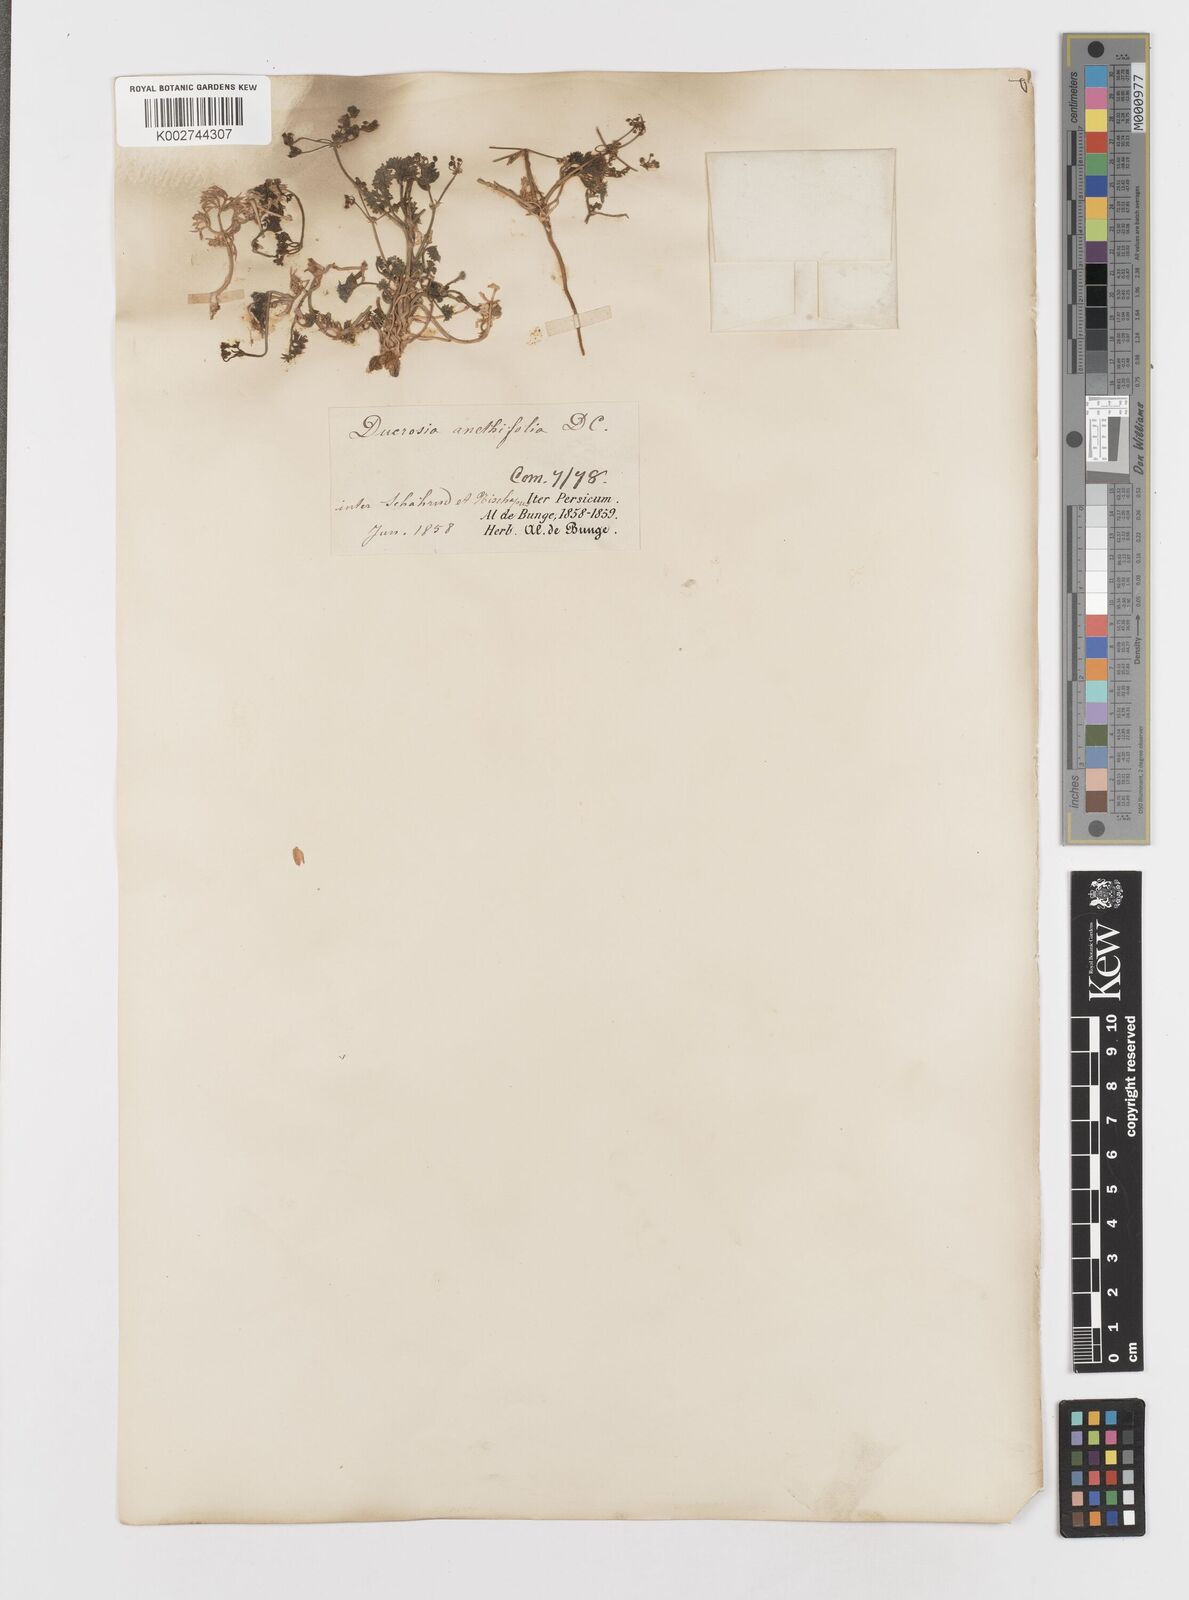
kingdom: Plantae
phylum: Tracheophyta
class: Magnoliopsida
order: Apiales
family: Apiaceae
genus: Ducrosia
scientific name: Ducrosia anethifolia
